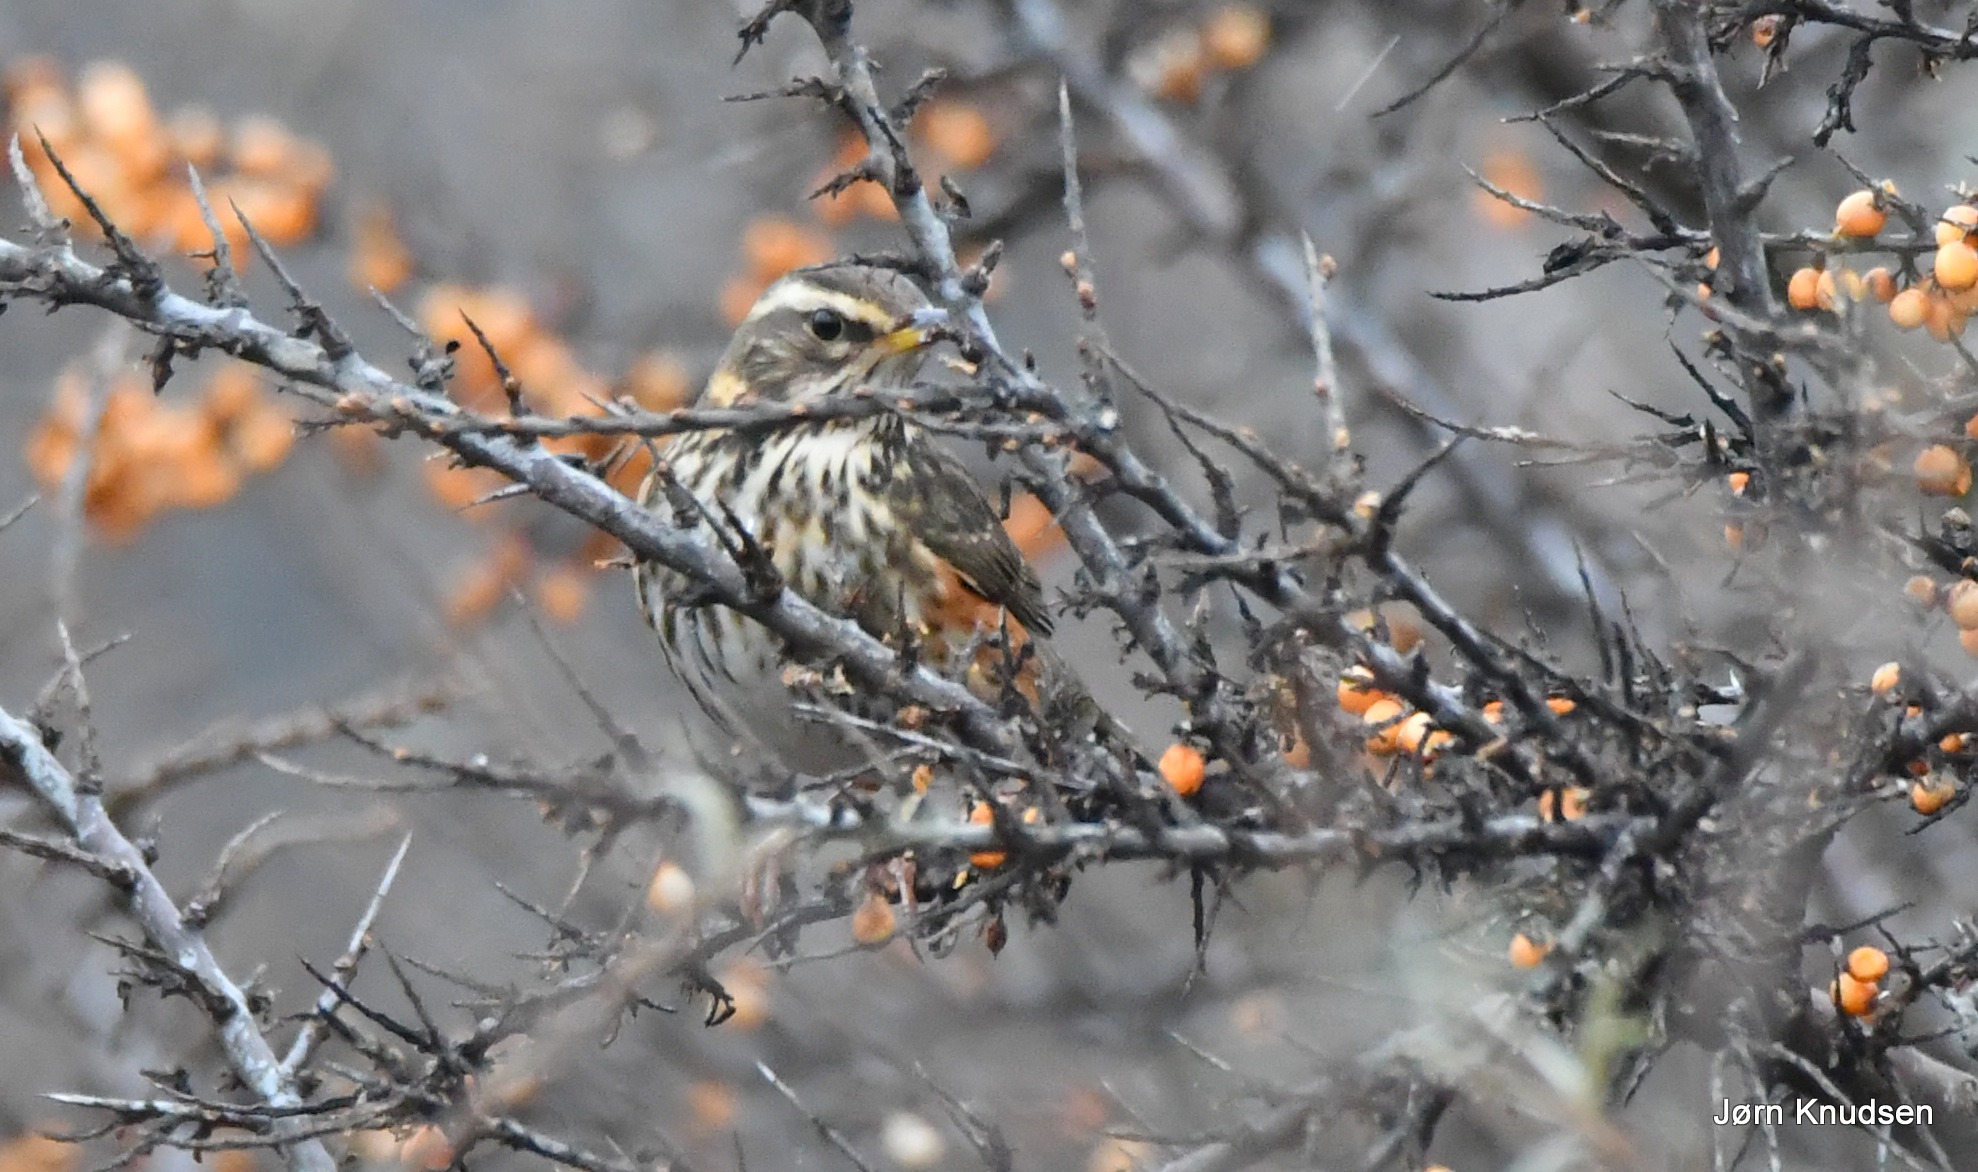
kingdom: Animalia
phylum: Chordata
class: Aves
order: Passeriformes
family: Turdidae
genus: Turdus
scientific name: Turdus iliacus
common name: Vindrossel
